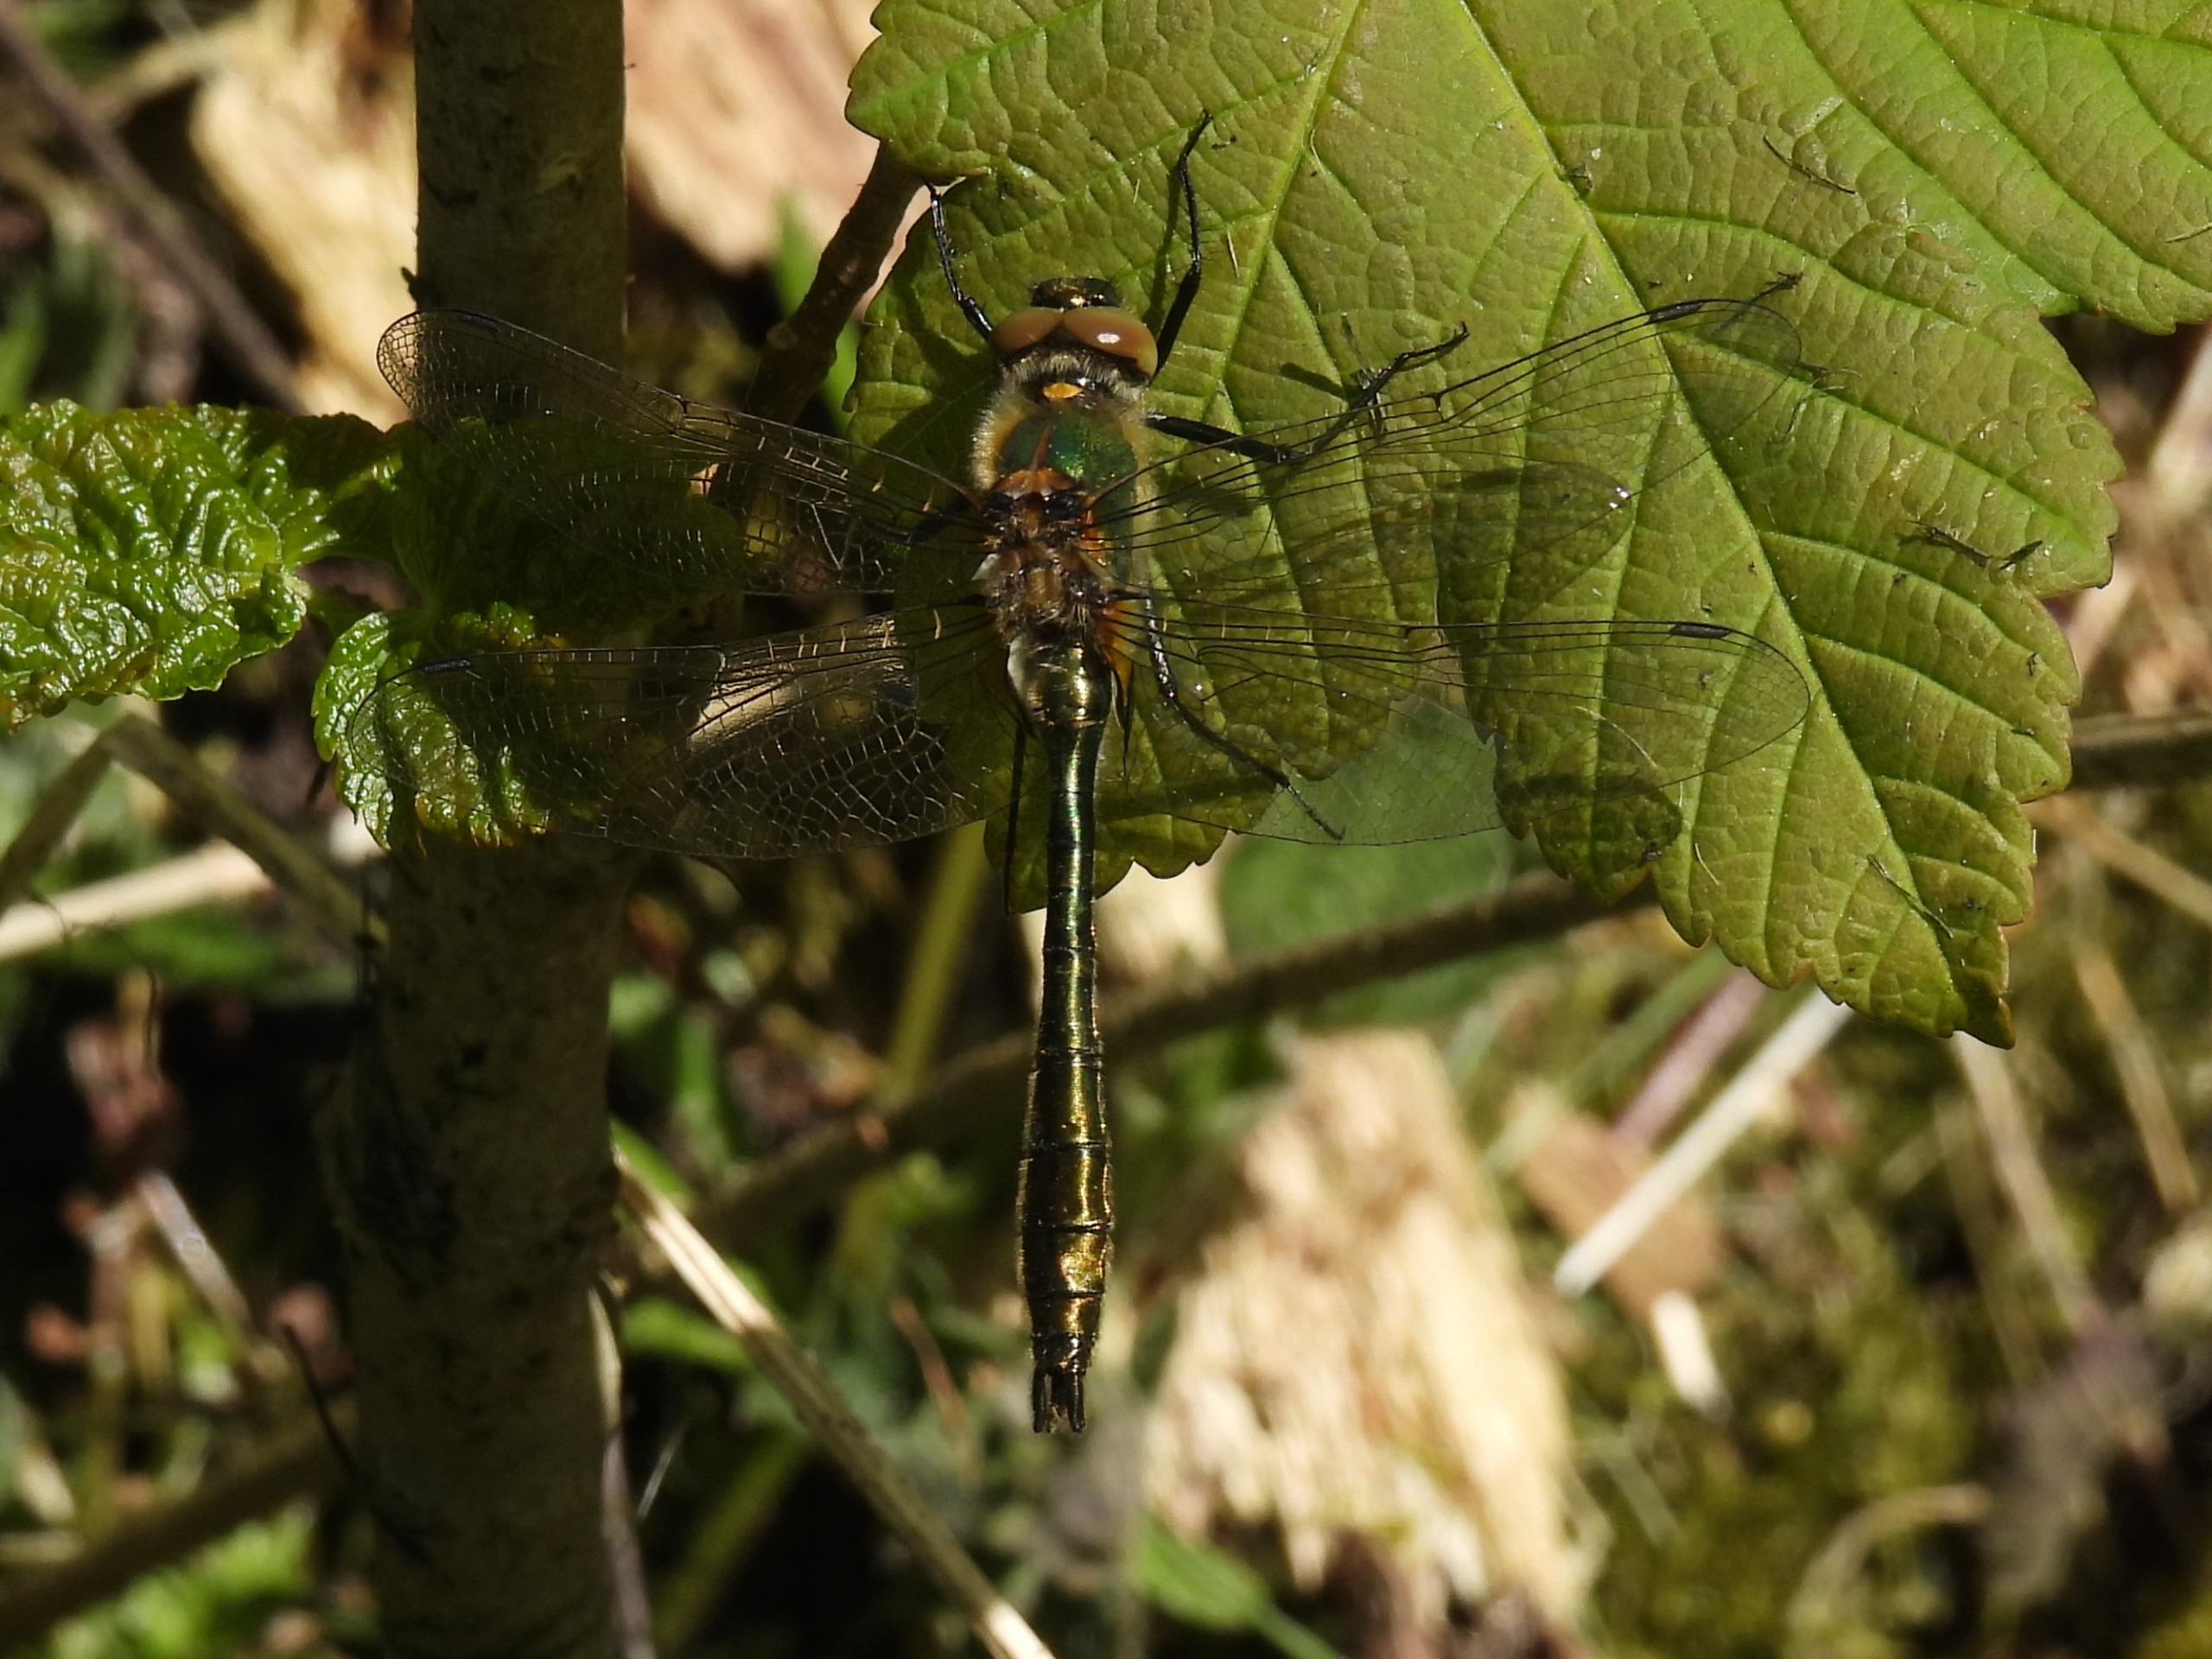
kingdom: Animalia
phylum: Arthropoda
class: Insecta
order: Odonata
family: Corduliidae
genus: Cordulia
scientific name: Cordulia aenea
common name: Grøn smaragdlibel
